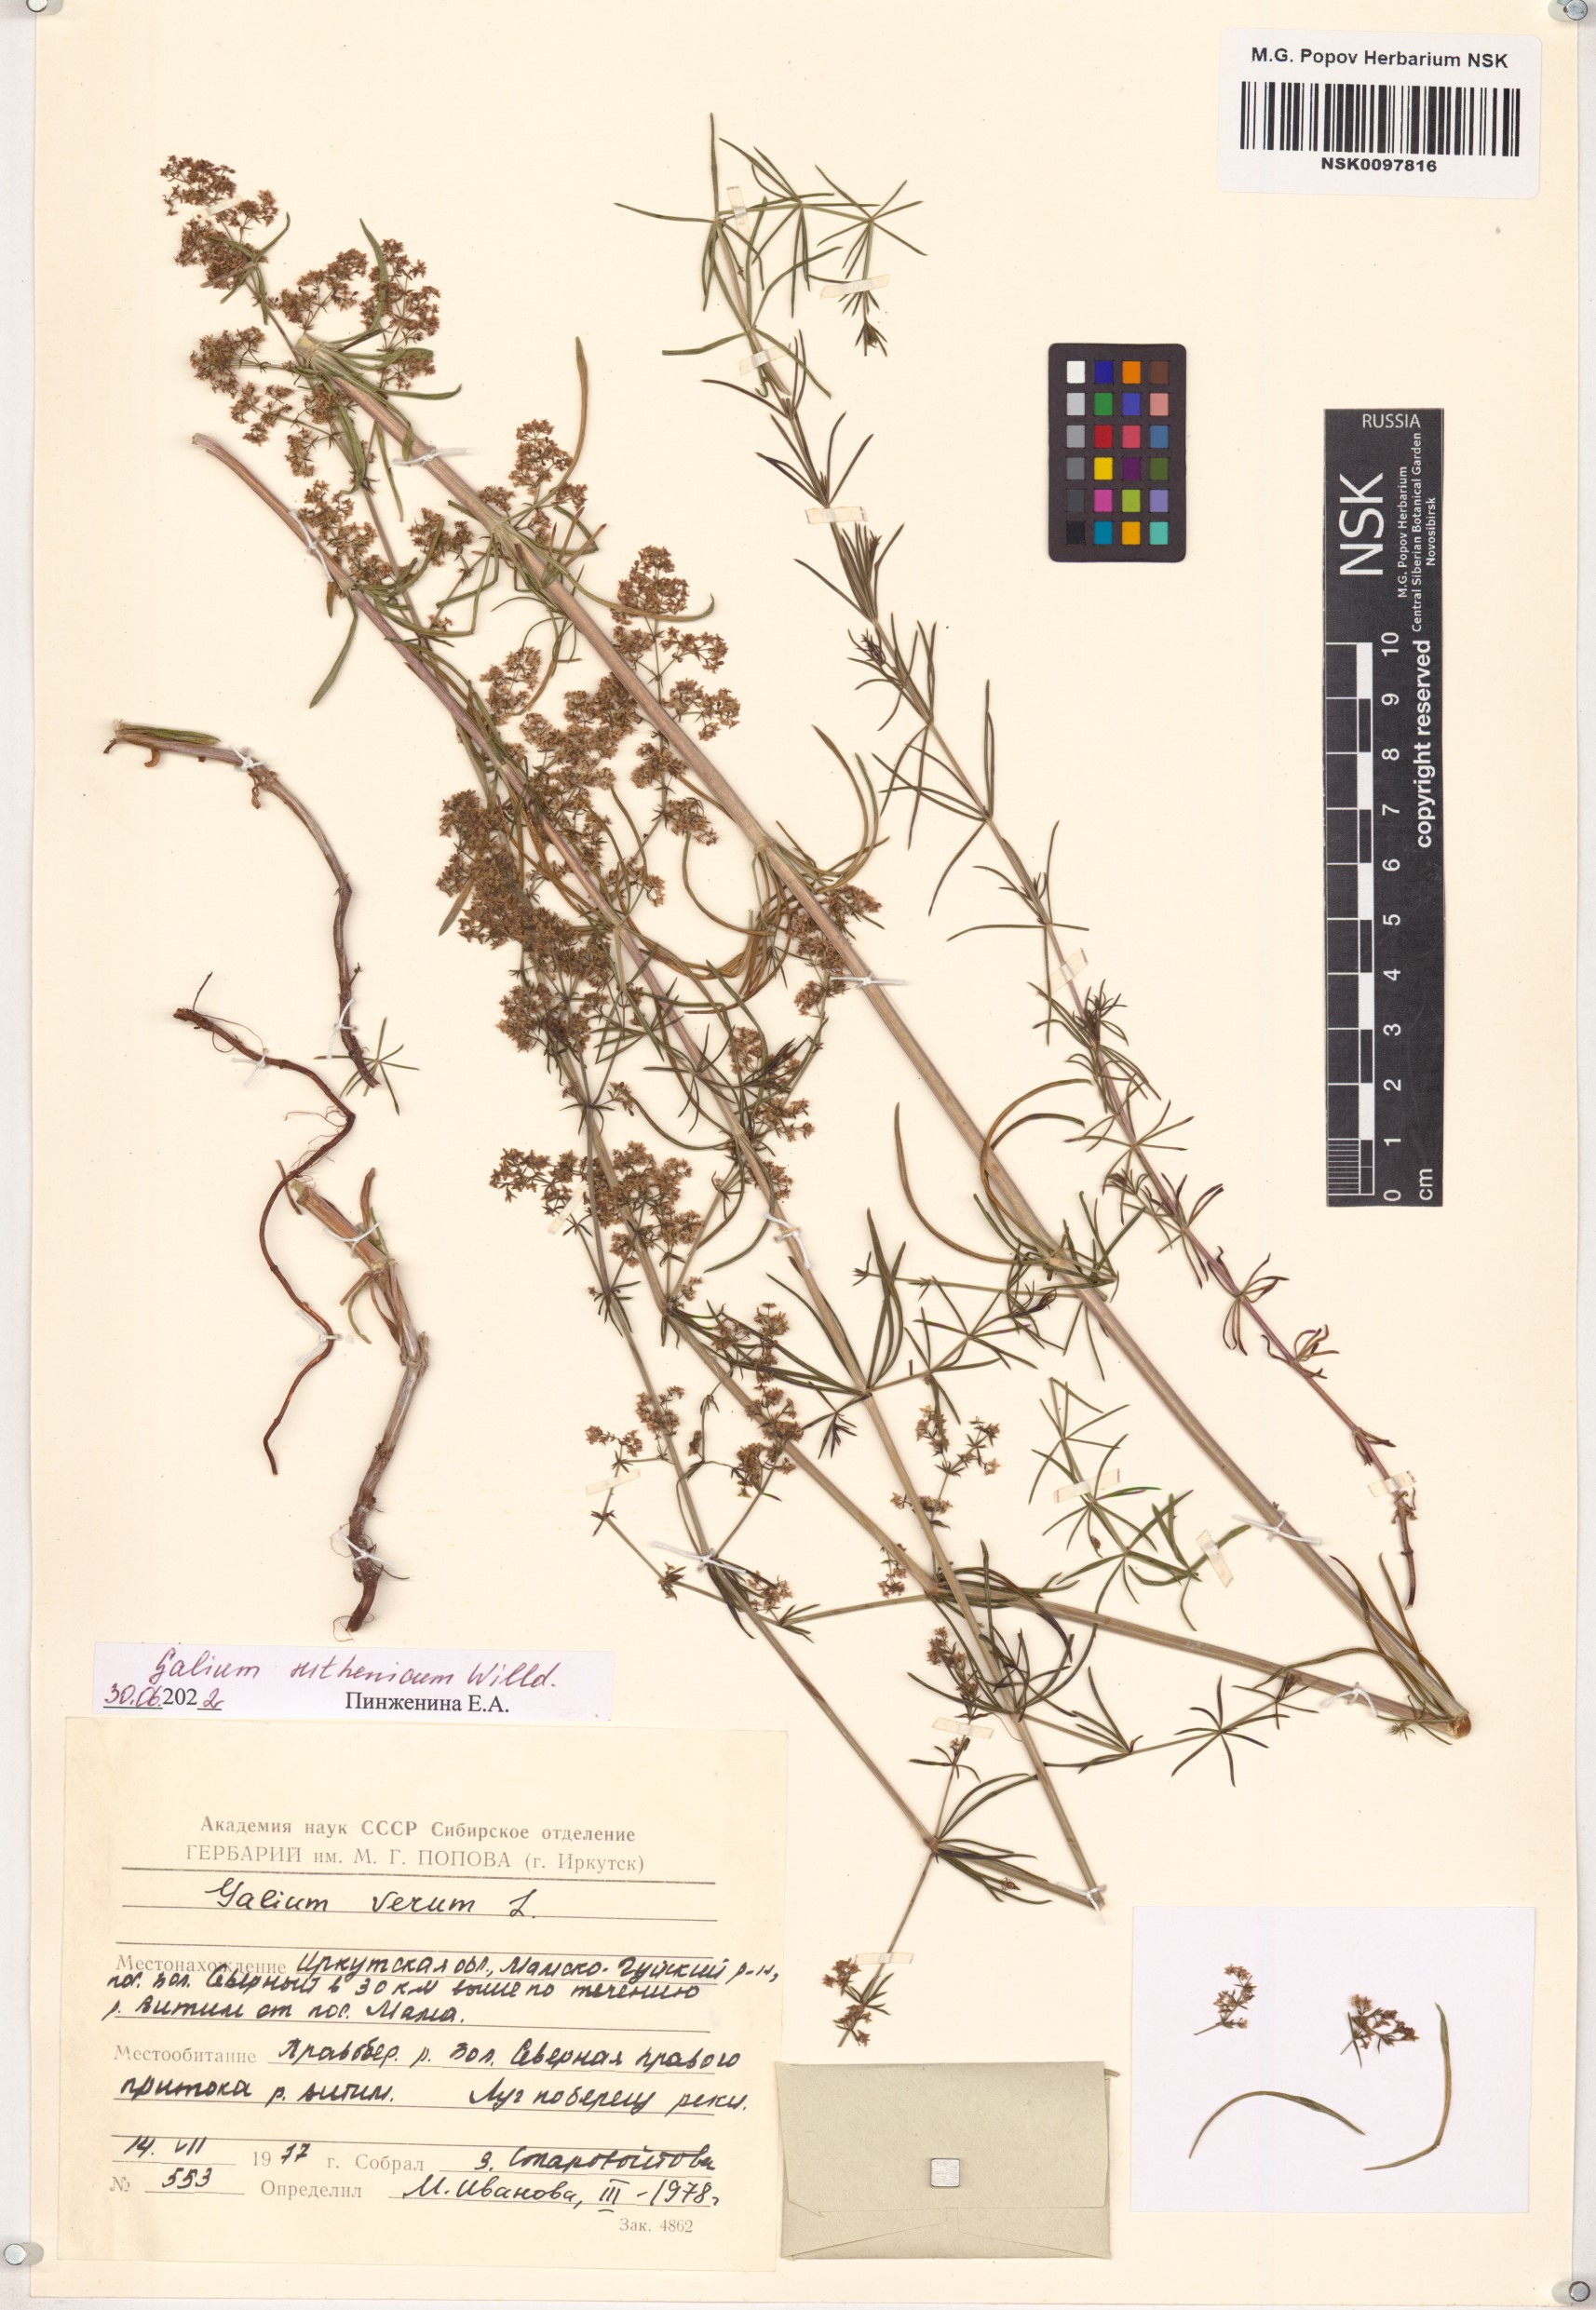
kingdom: Plantae
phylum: Tracheophyta
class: Magnoliopsida
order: Gentianales
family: Rubiaceae
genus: Galium
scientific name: Galium verum
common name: Lady's bedstraw
